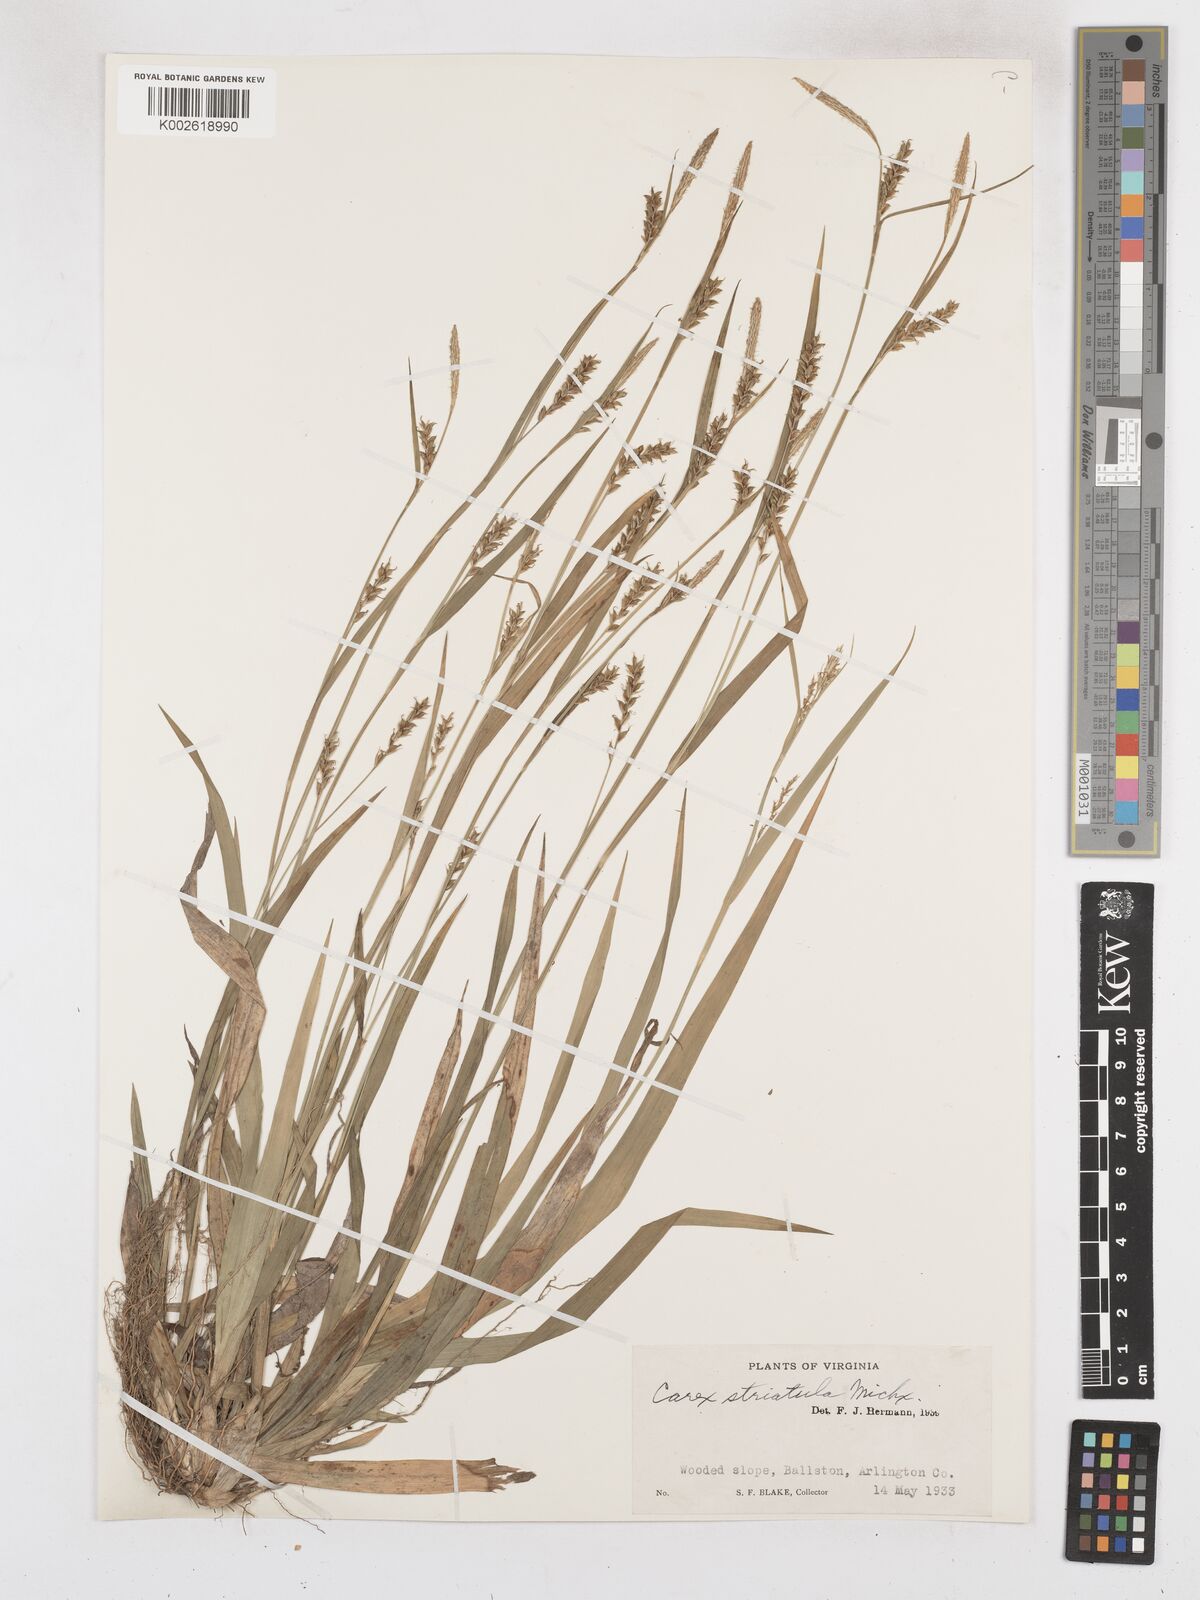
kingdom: Plantae
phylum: Tracheophyta
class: Liliopsida
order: Poales
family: Cyperaceae
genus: Carex
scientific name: Carex striatula
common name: Lined sedge
